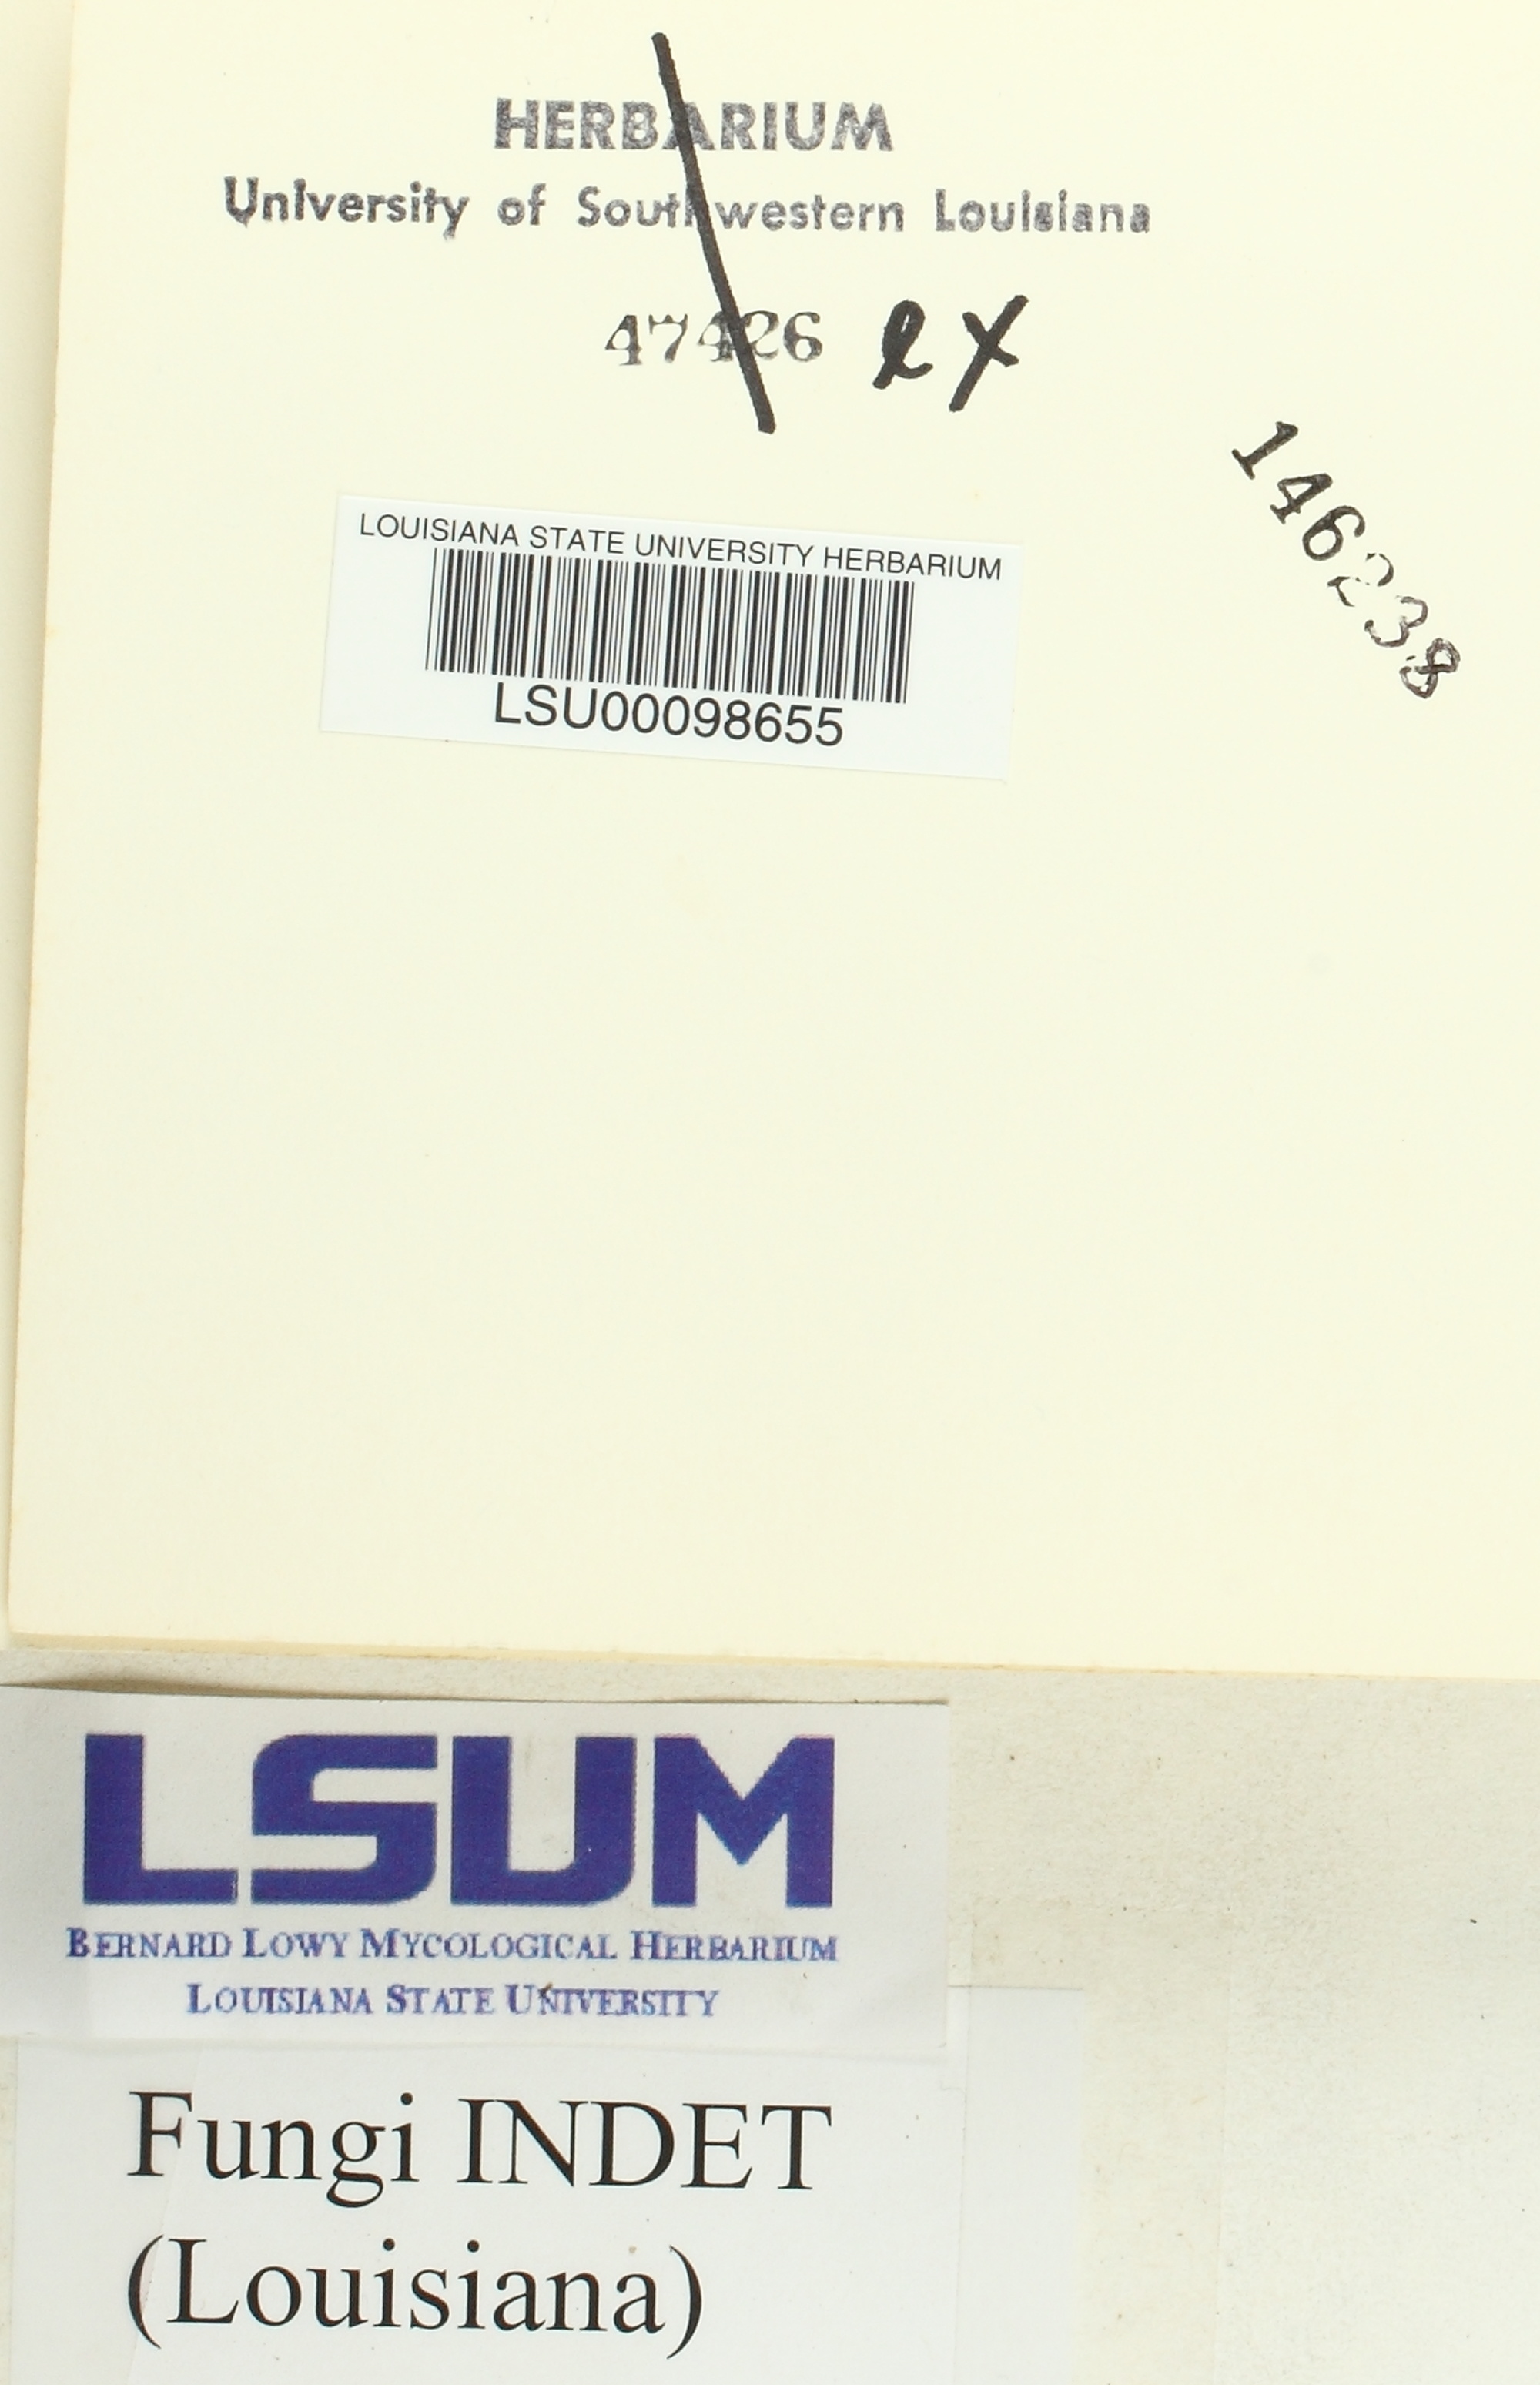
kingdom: Fungi
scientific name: Fungi
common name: Fungi
